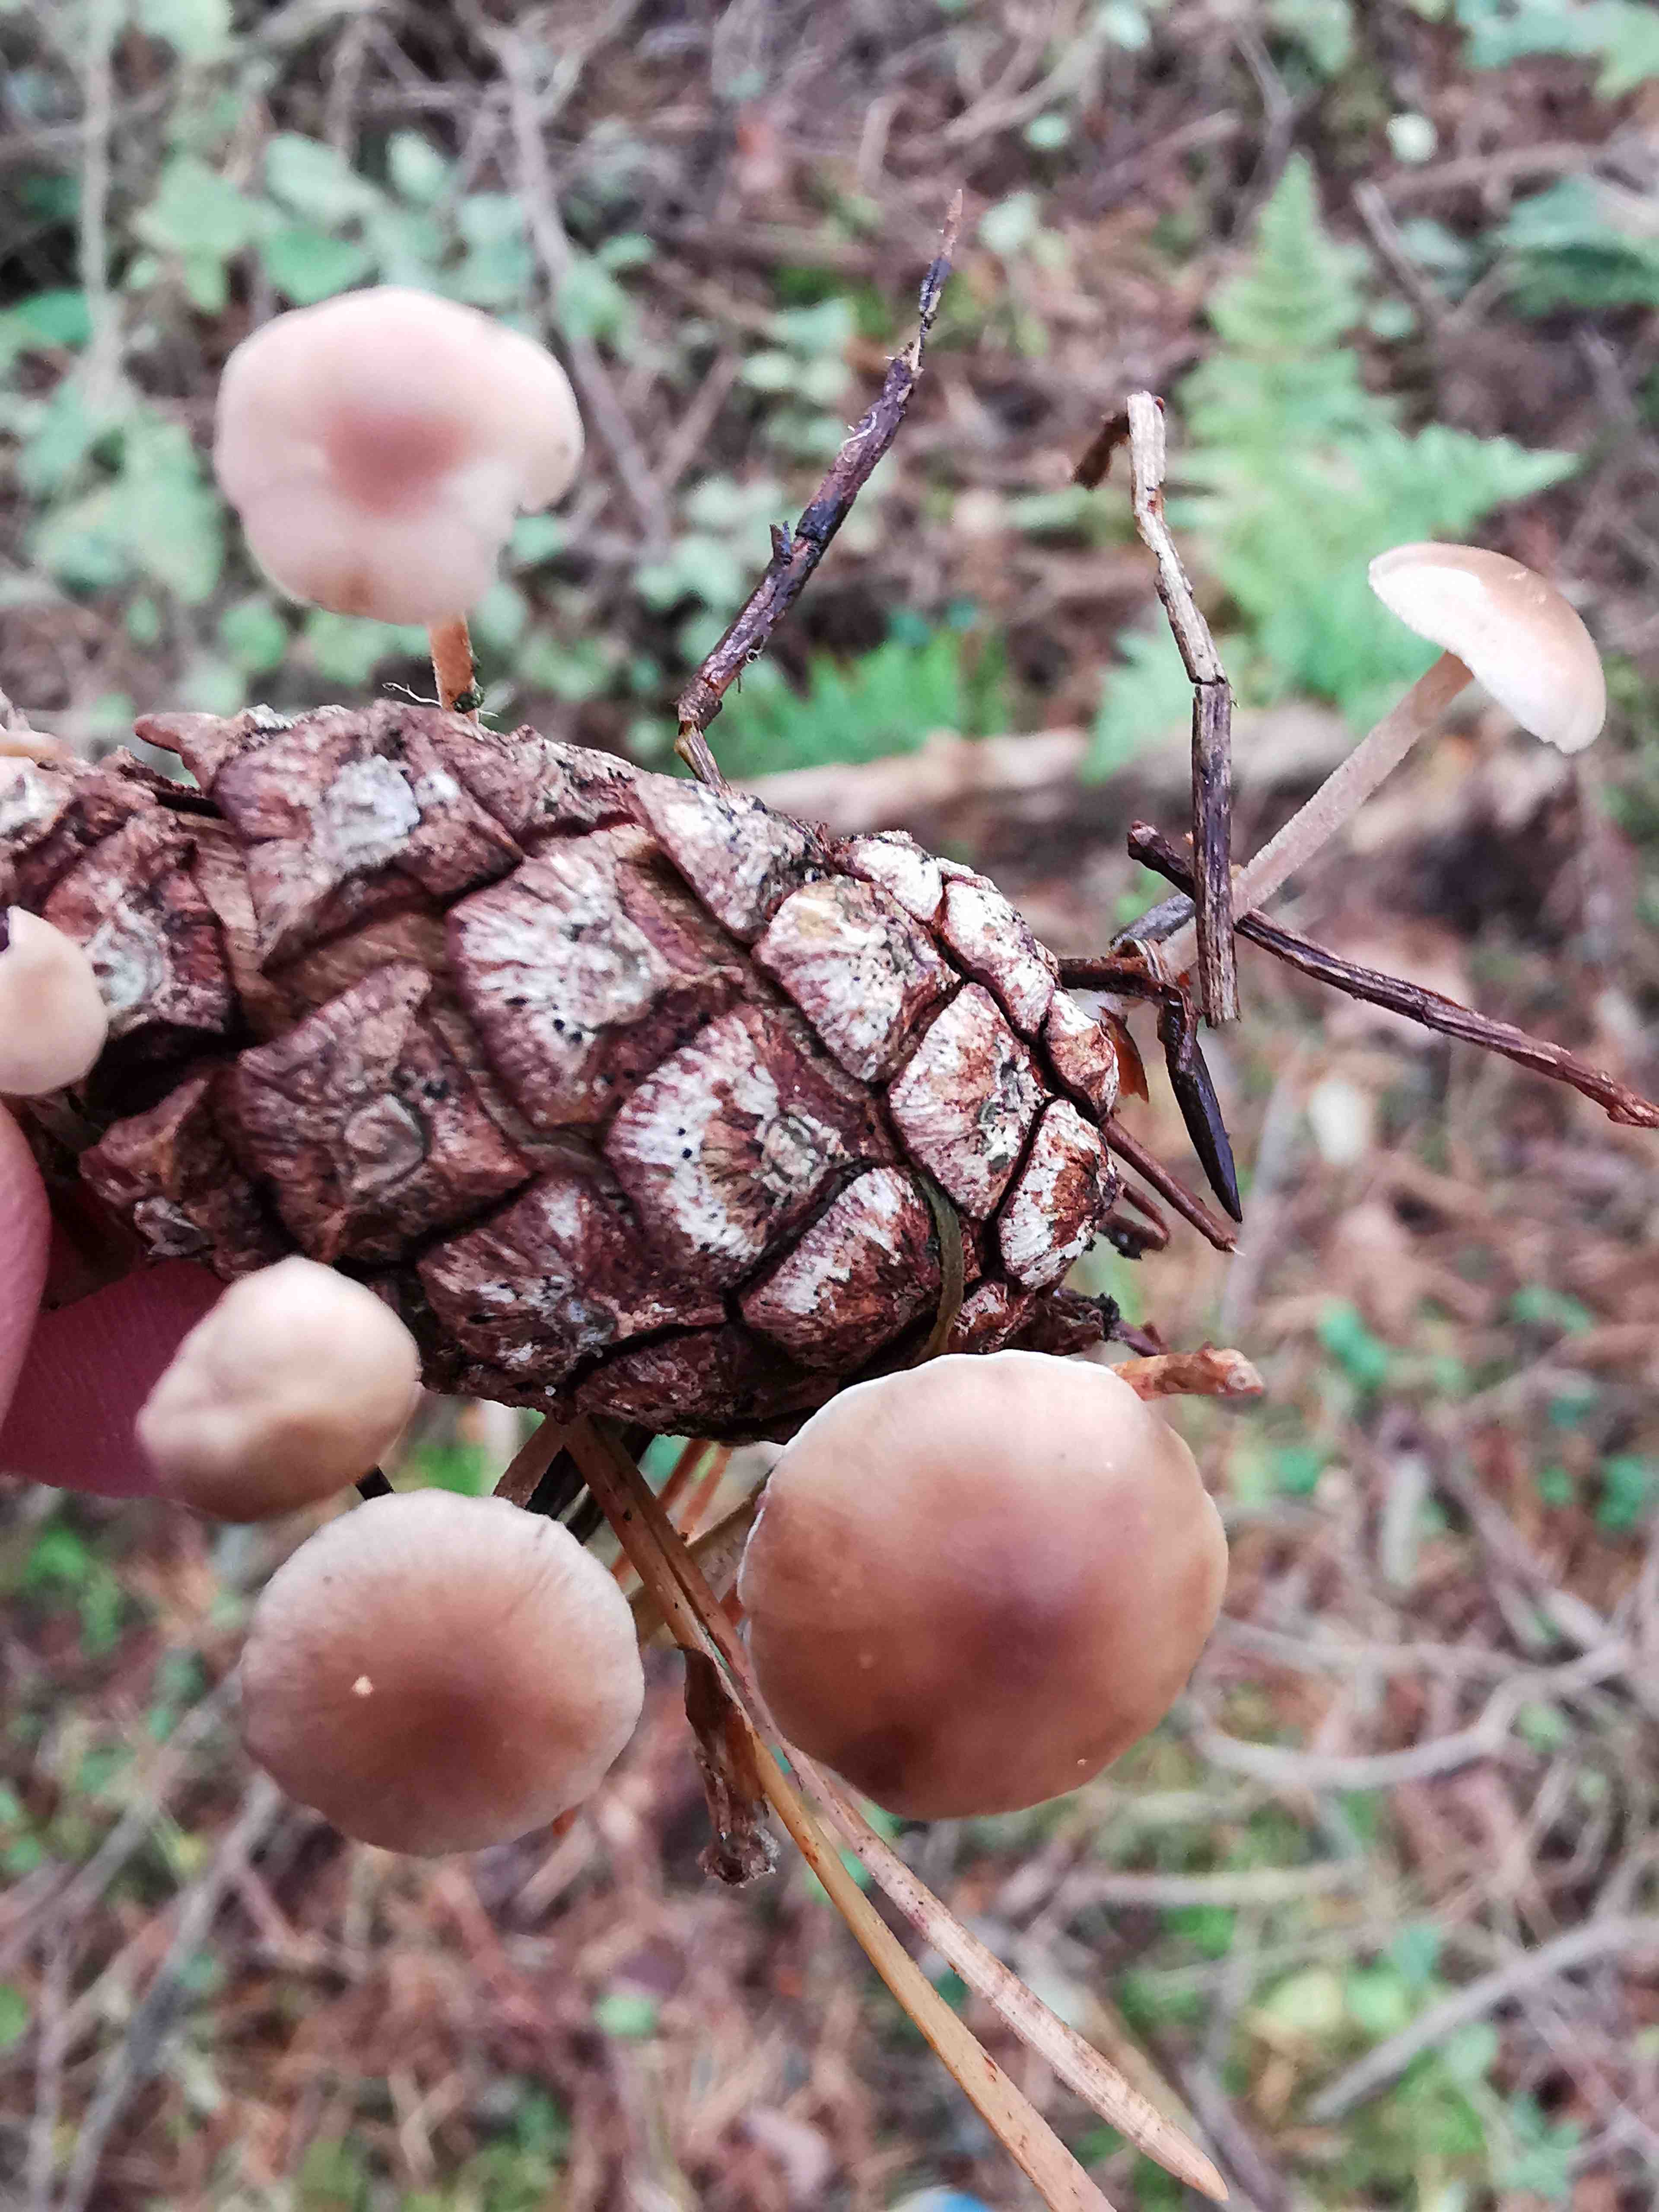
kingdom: Fungi
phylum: Basidiomycota
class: Agaricomycetes
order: Agaricales
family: Marasmiaceae
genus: Baeospora
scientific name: Baeospora myosura
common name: koglebruskhat
